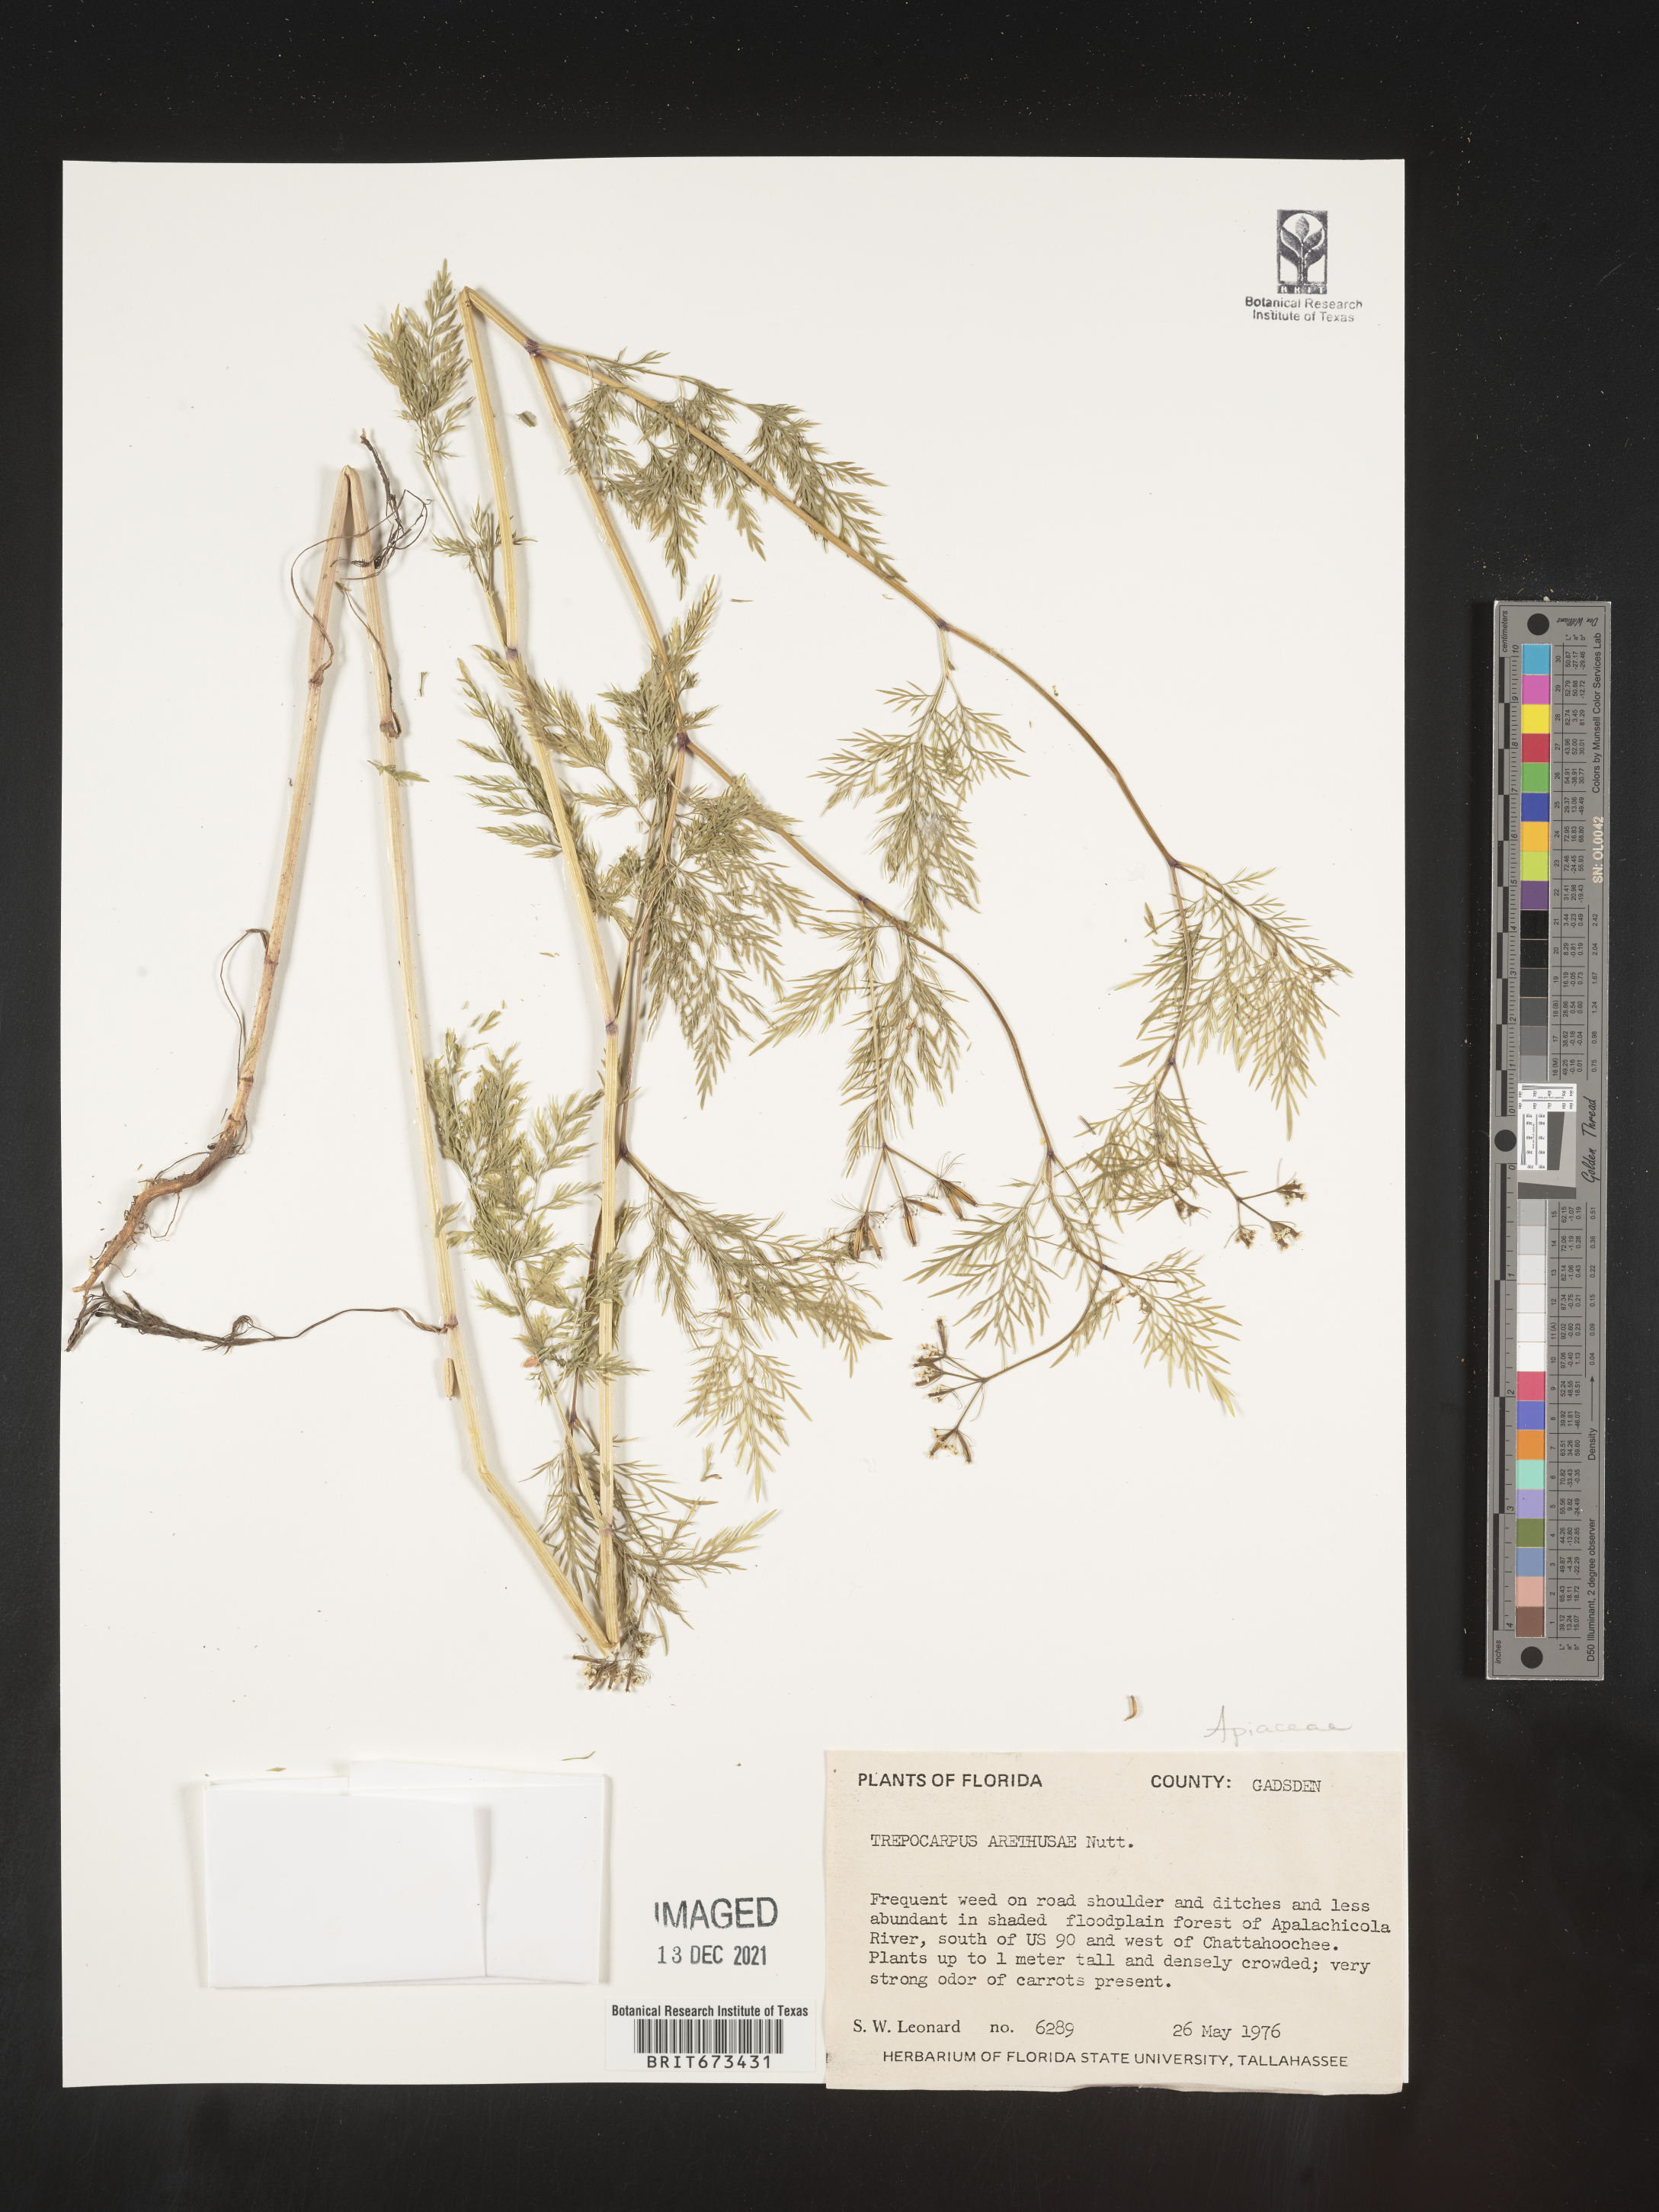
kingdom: Plantae
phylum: Tracheophyta
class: Magnoliopsida
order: Apiales
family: Apiaceae
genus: Trepocarpus
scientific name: Trepocarpus aethusae
